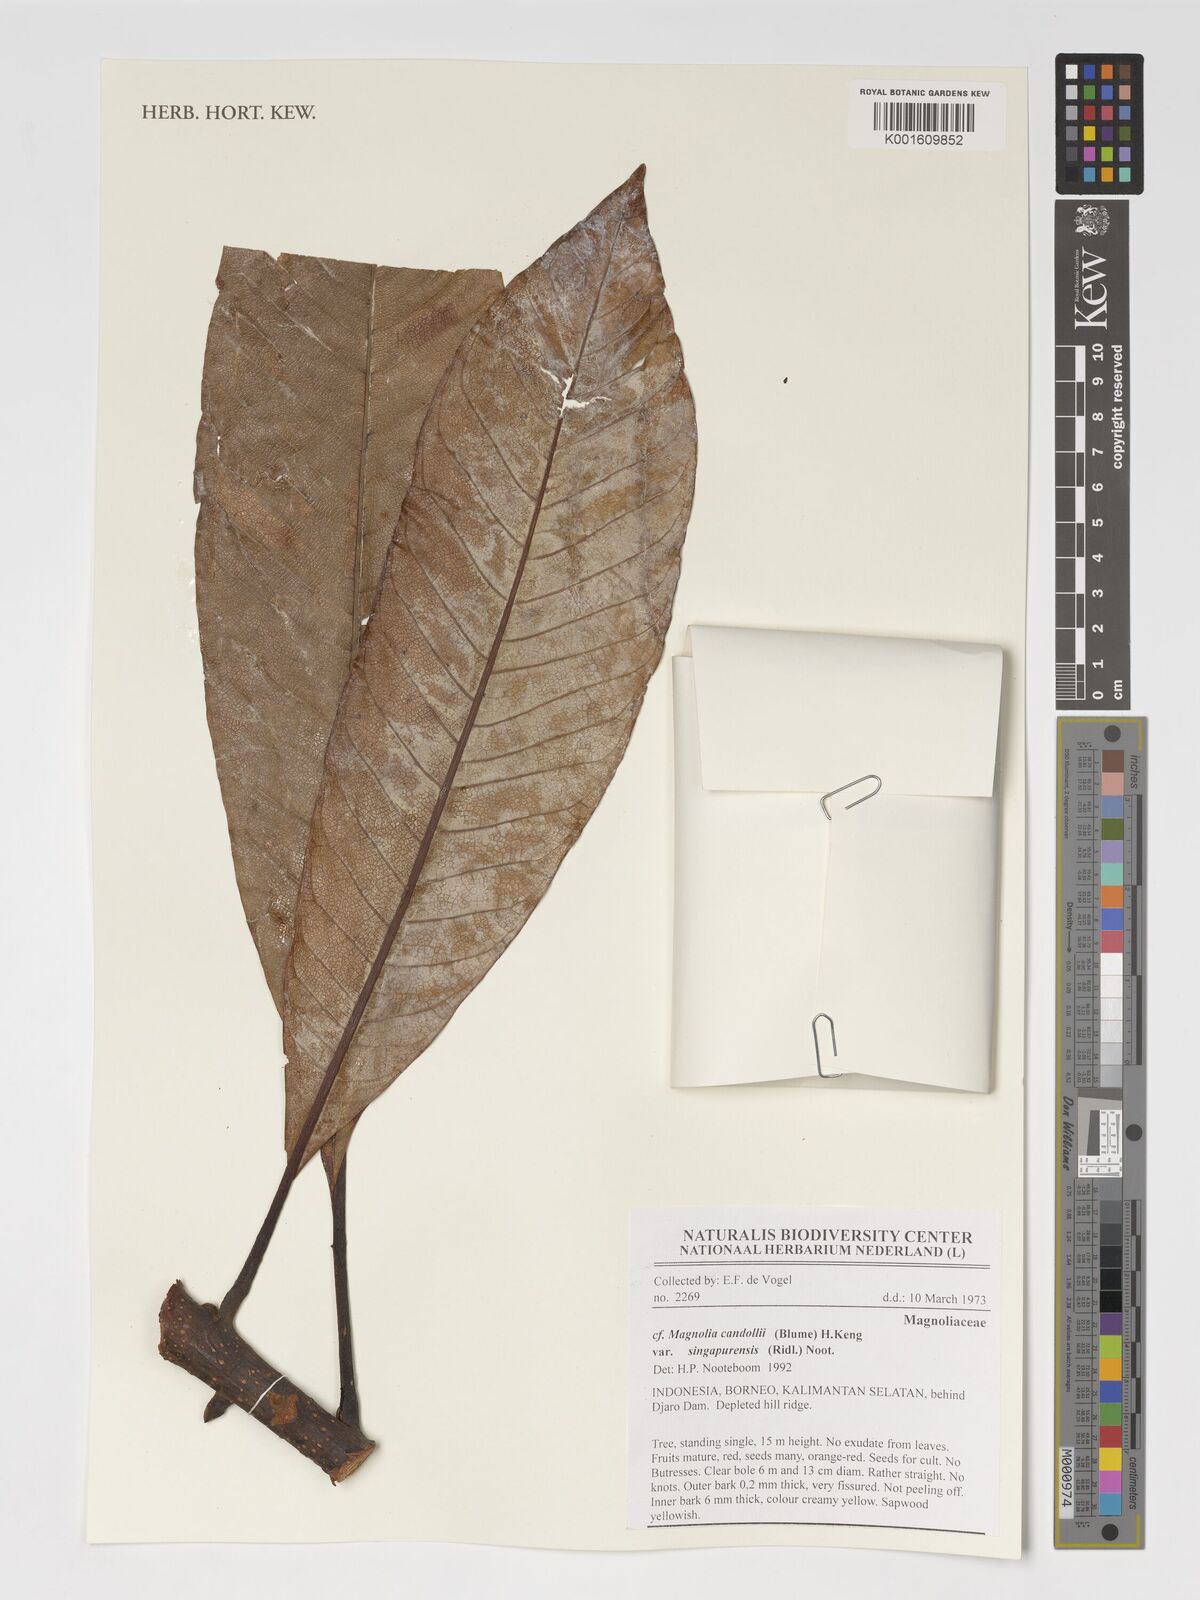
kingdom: Plantae
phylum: Tracheophyta
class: Magnoliopsida
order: Magnoliales
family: Magnoliaceae
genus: Magnolia
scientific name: Magnolia singapurensis
